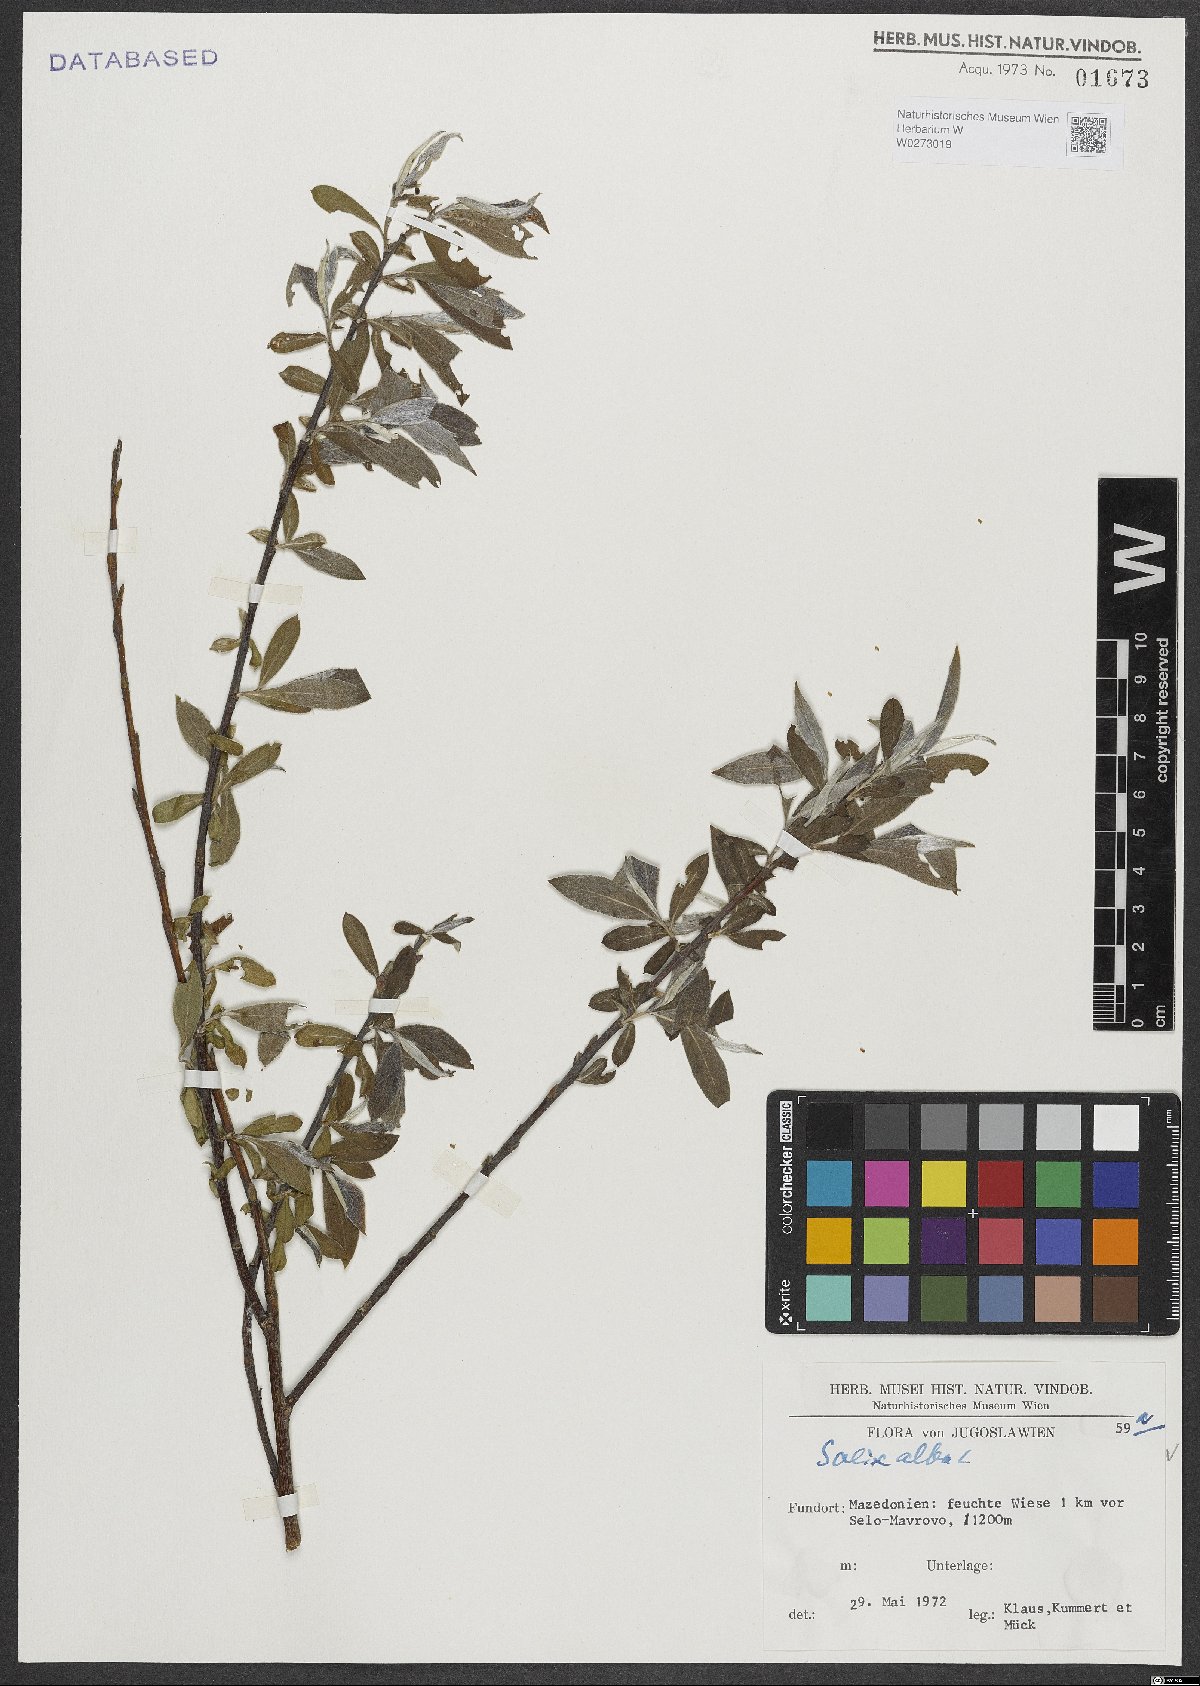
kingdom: Plantae
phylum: Tracheophyta
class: Magnoliopsida
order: Malpighiales
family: Salicaceae
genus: Salix
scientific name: Salix alba
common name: White willow
